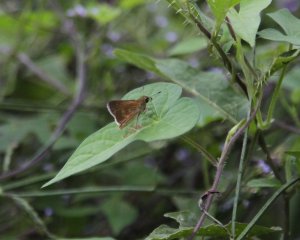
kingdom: Animalia
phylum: Arthropoda
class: Insecta
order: Lepidoptera
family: Hesperiidae
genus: Wallengrenia
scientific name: Wallengrenia otho
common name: Southern Broken-Dash
